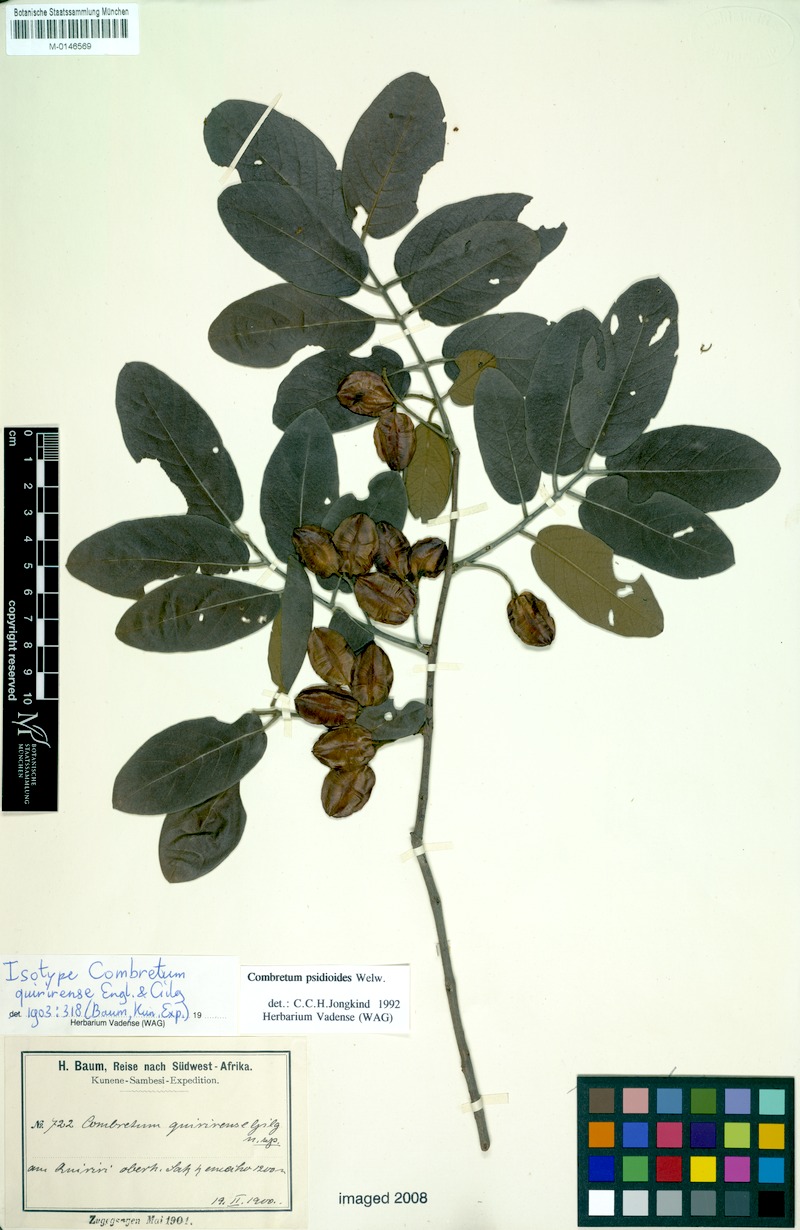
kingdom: Plantae
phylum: Tracheophyta
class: Magnoliopsida
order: Myrtales
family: Combretaceae
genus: Combretum
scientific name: Combretum psidioides
